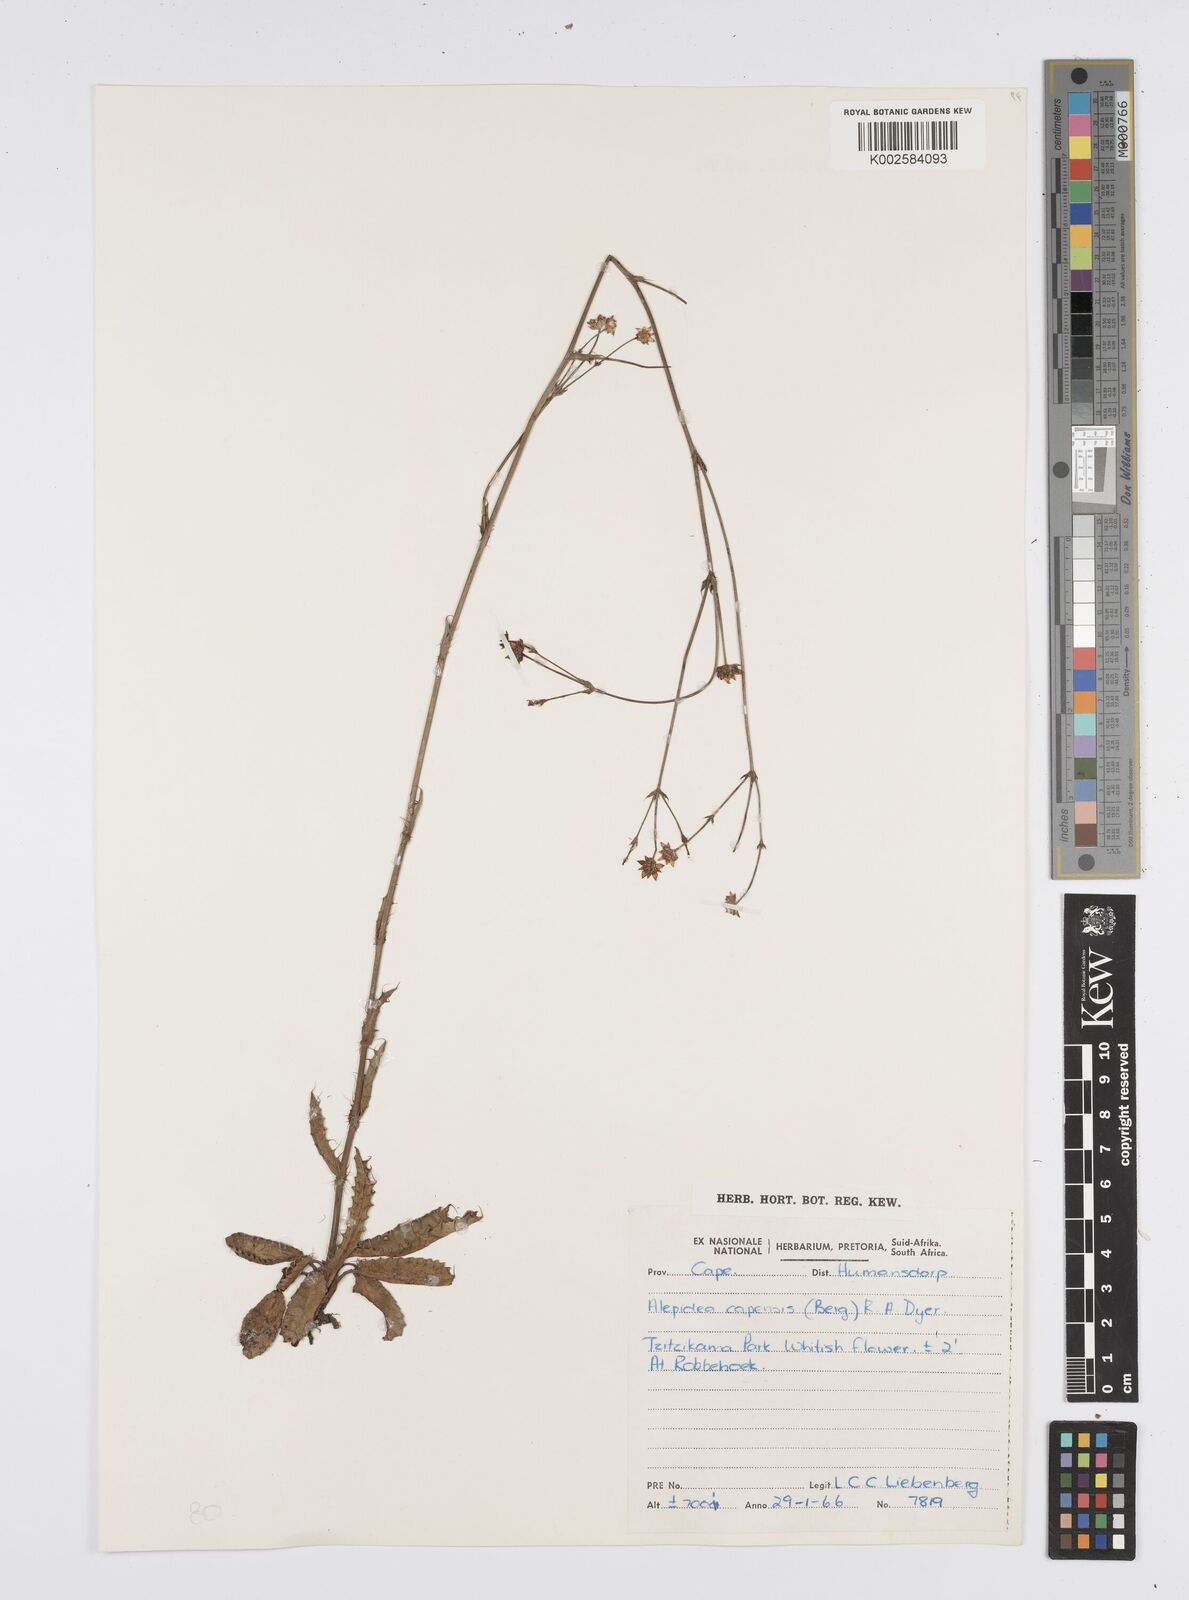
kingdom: Plantae
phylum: Tracheophyta
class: Magnoliopsida
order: Apiales
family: Apiaceae
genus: Alepidea
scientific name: Alepidea capensis
